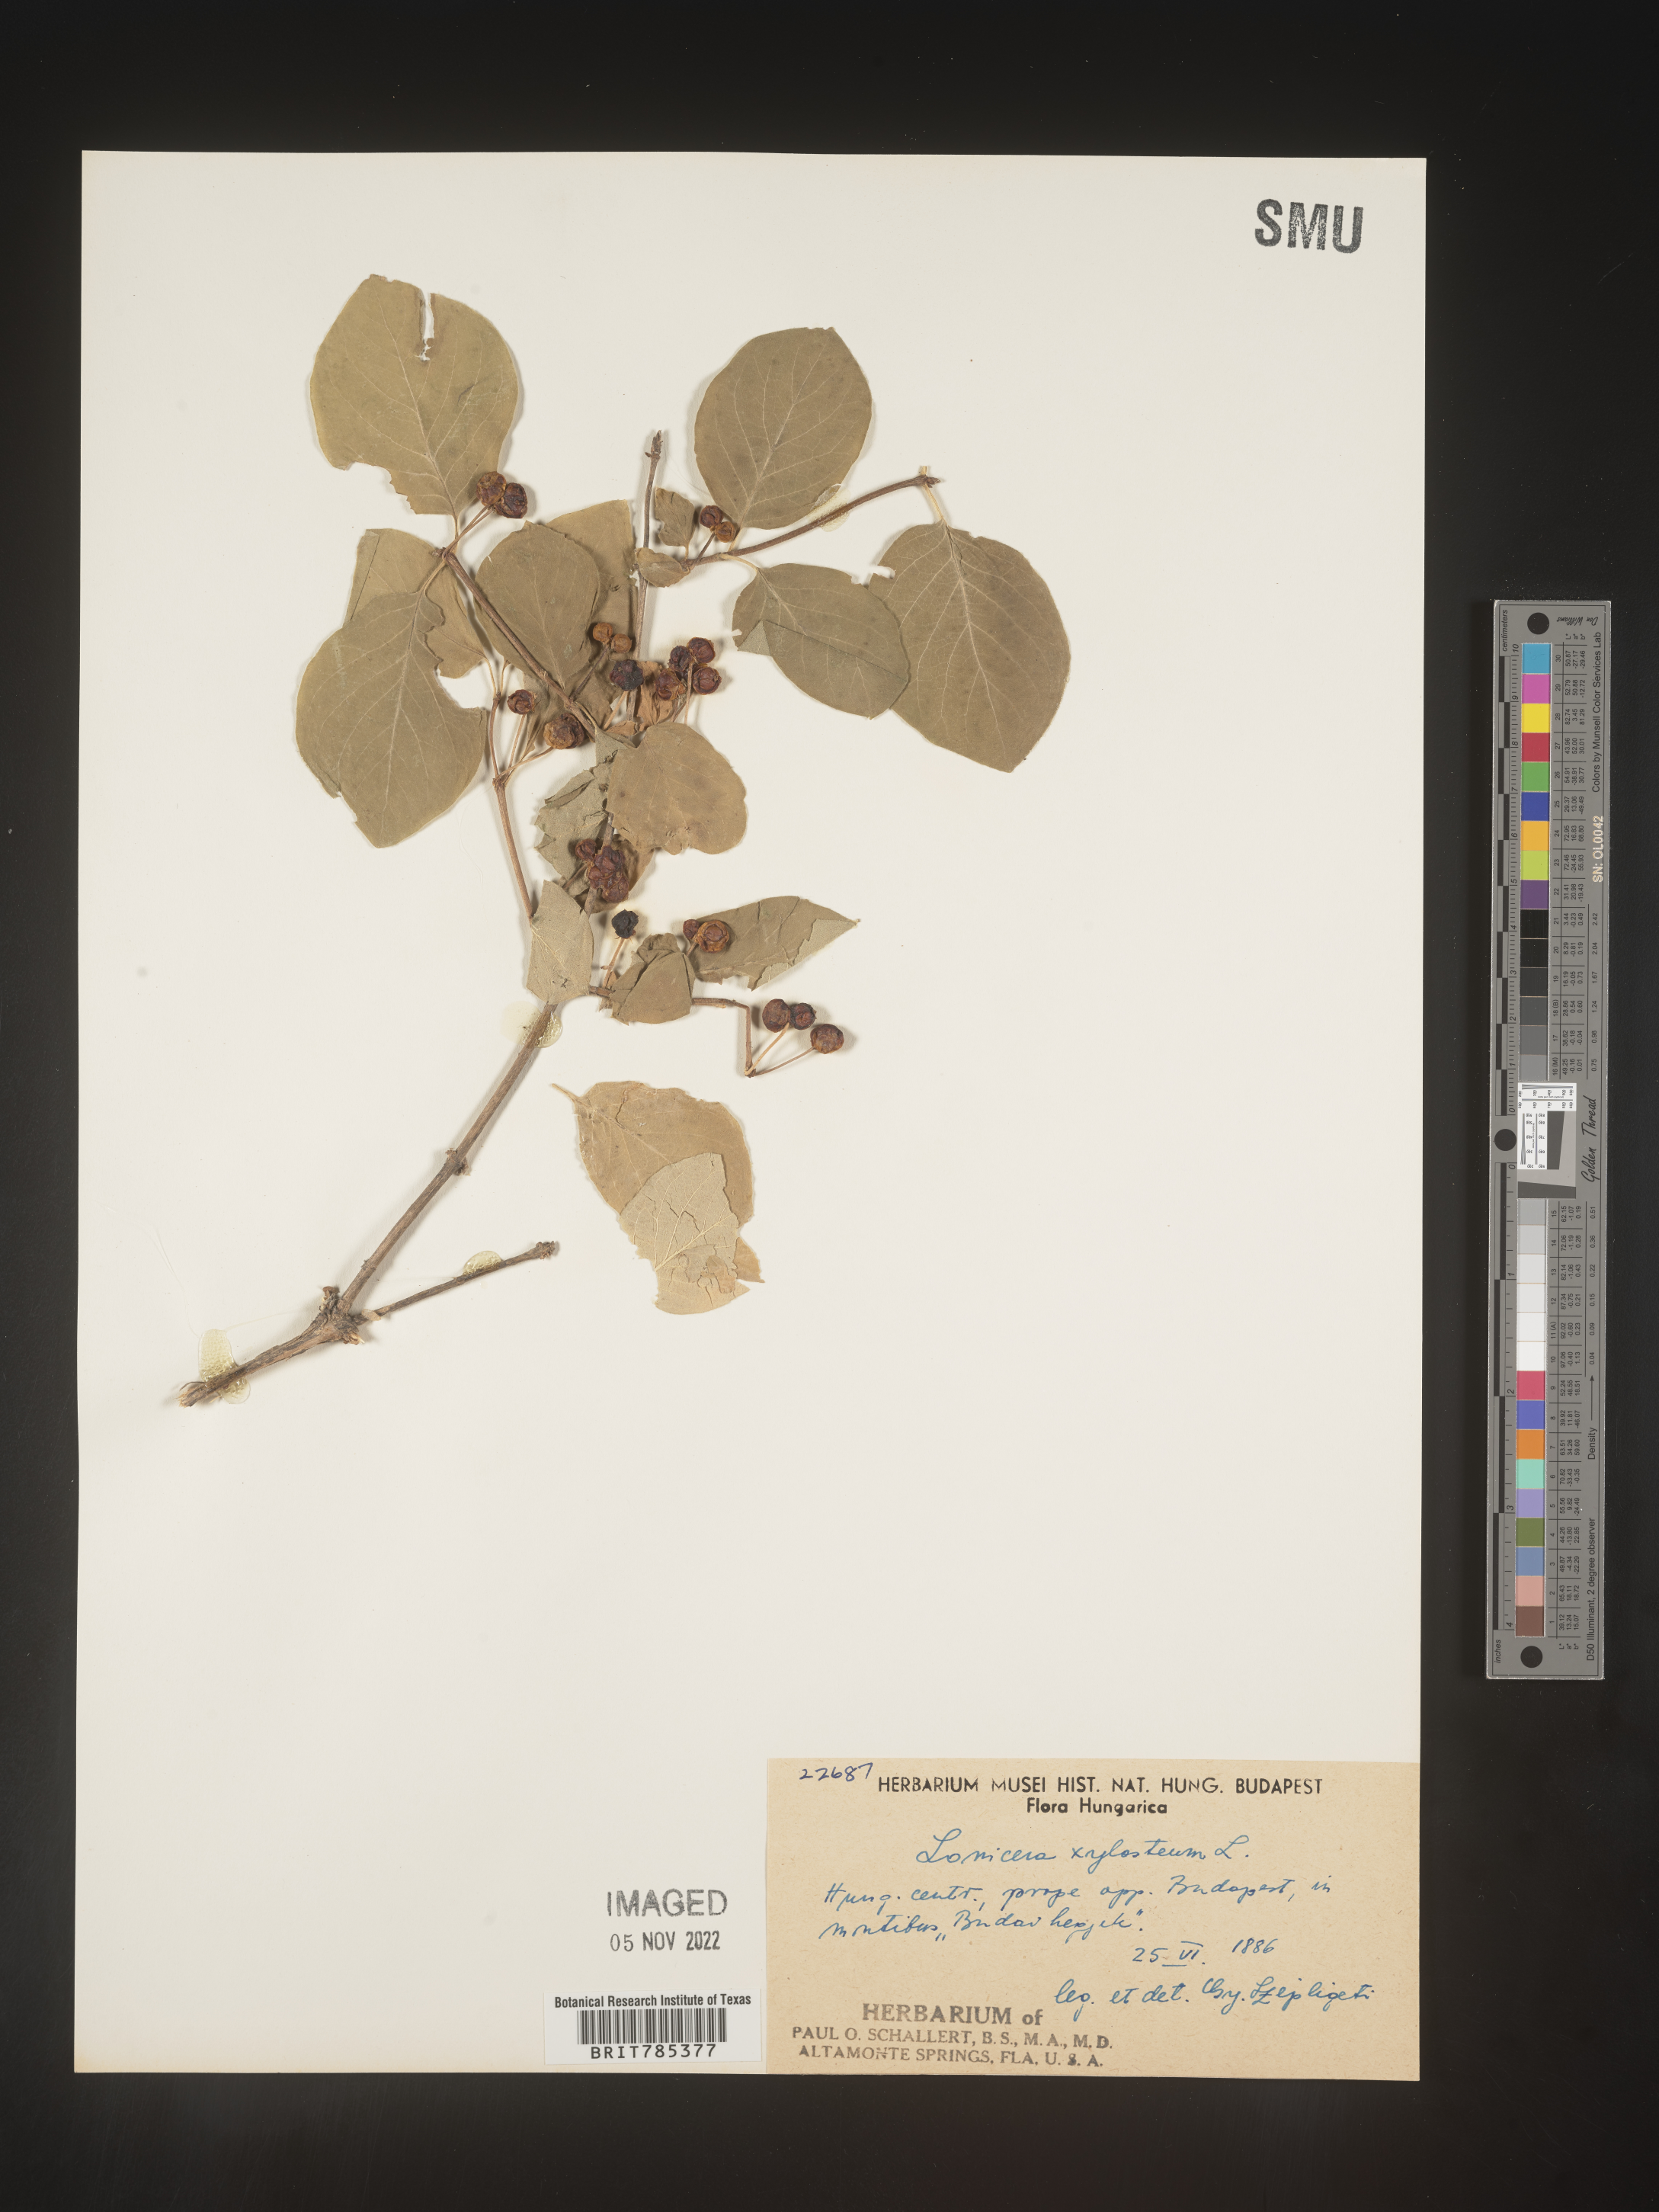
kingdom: Plantae
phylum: Tracheophyta
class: Magnoliopsida
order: Dipsacales
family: Caprifoliaceae
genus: Lonicera
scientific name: Lonicera
